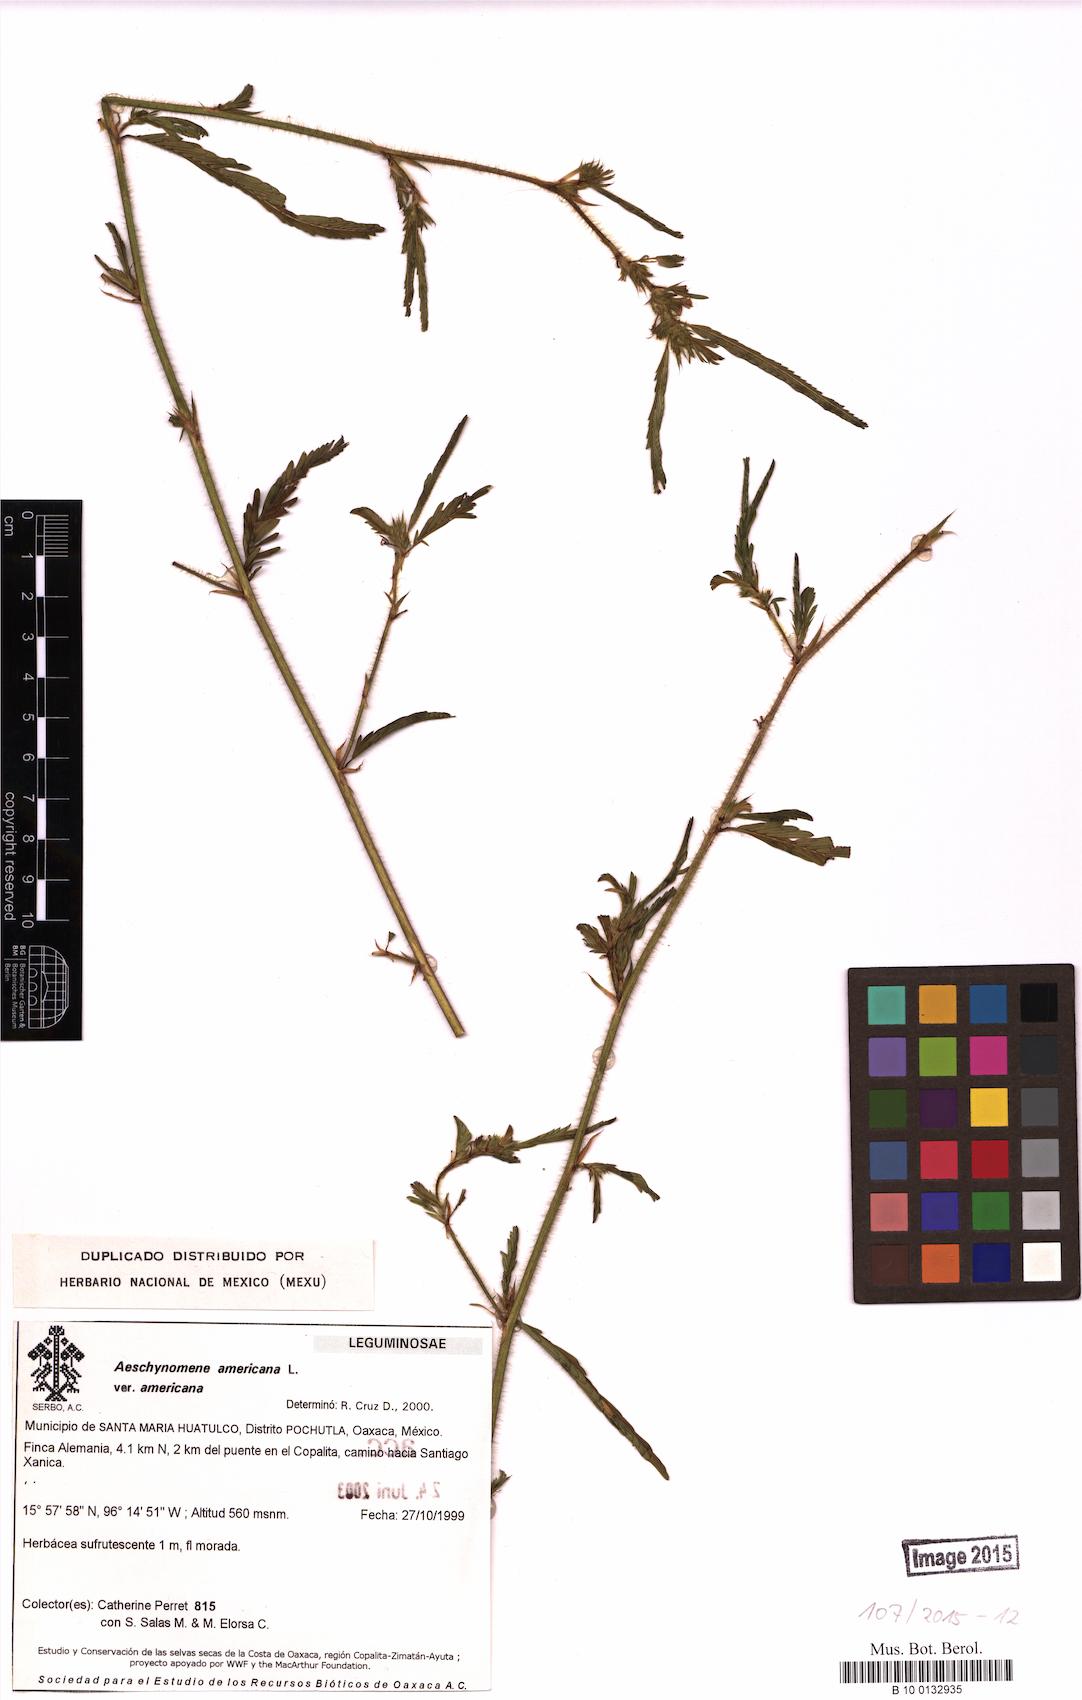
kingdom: Plantae
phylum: Tracheophyta
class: Magnoliopsida
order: Fabales
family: Fabaceae
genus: Aeschynomene
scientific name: Aeschynomene americana
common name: Joint-vetch
